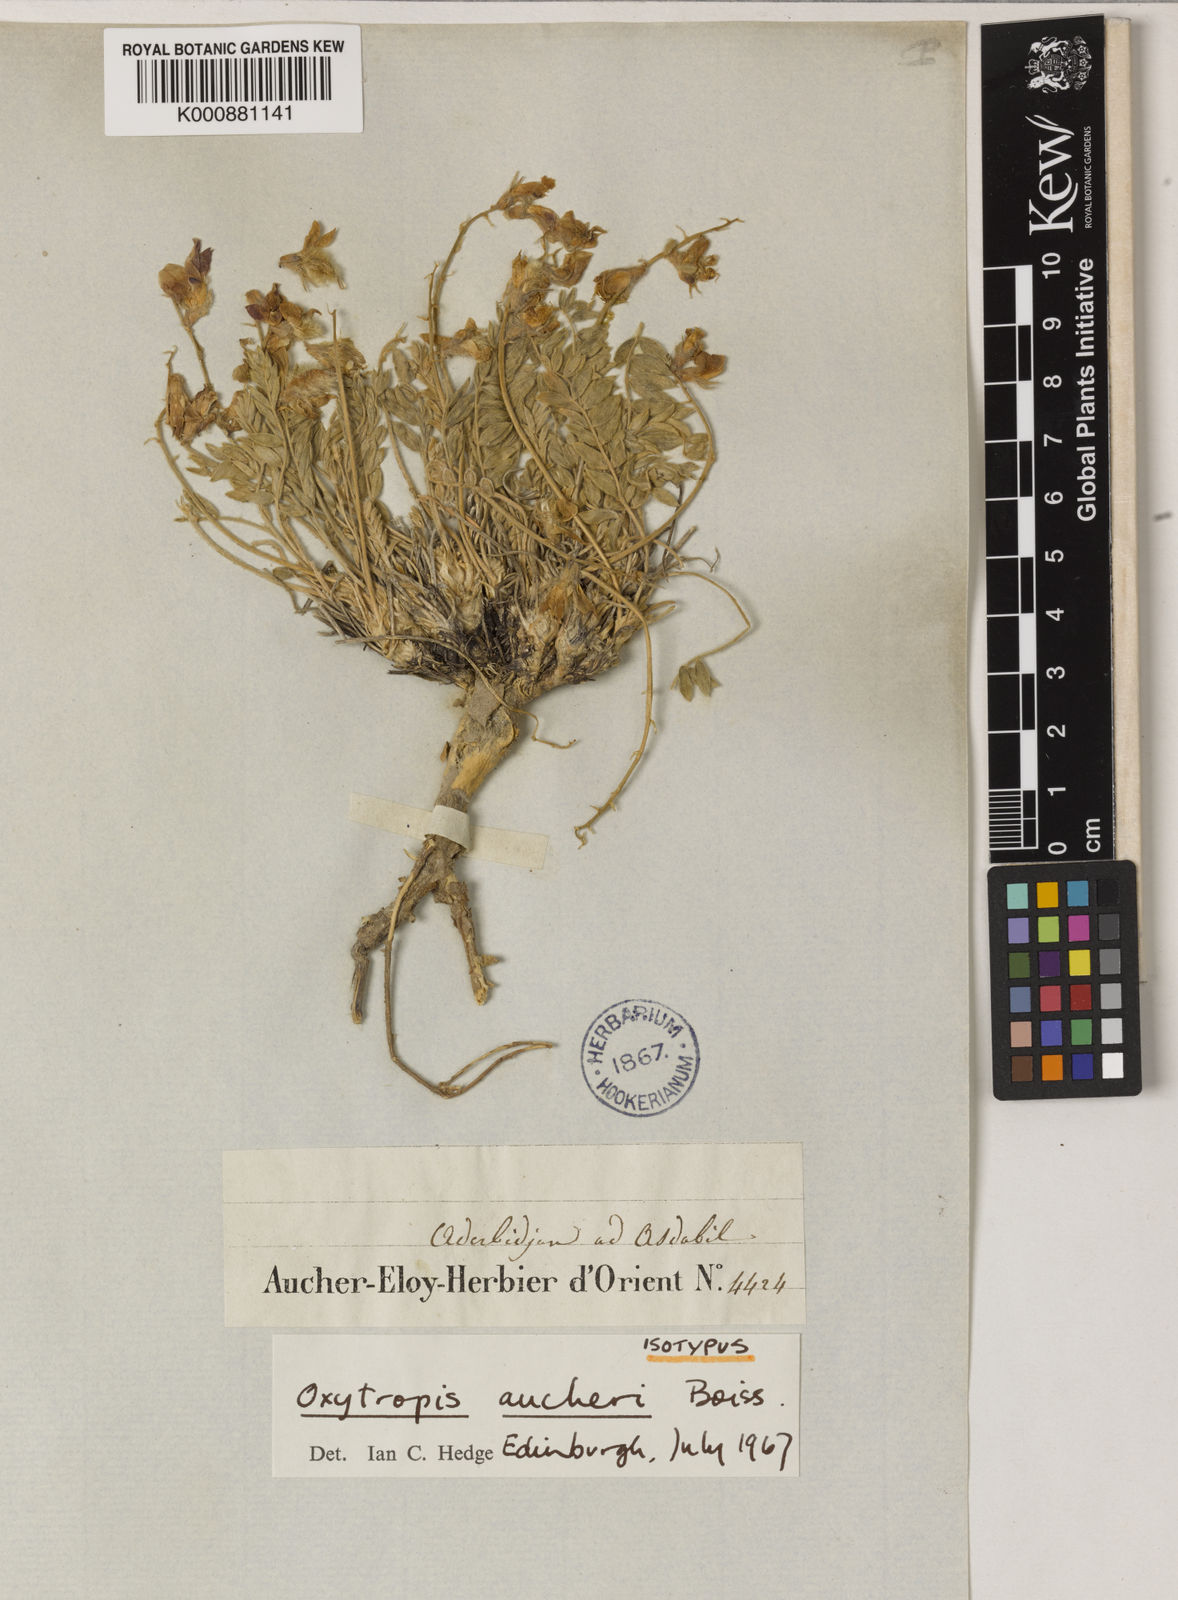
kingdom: Plantae
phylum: Tracheophyta
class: Magnoliopsida
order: Fabales
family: Fabaceae
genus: Oxytropis
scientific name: Oxytropis aucheri
